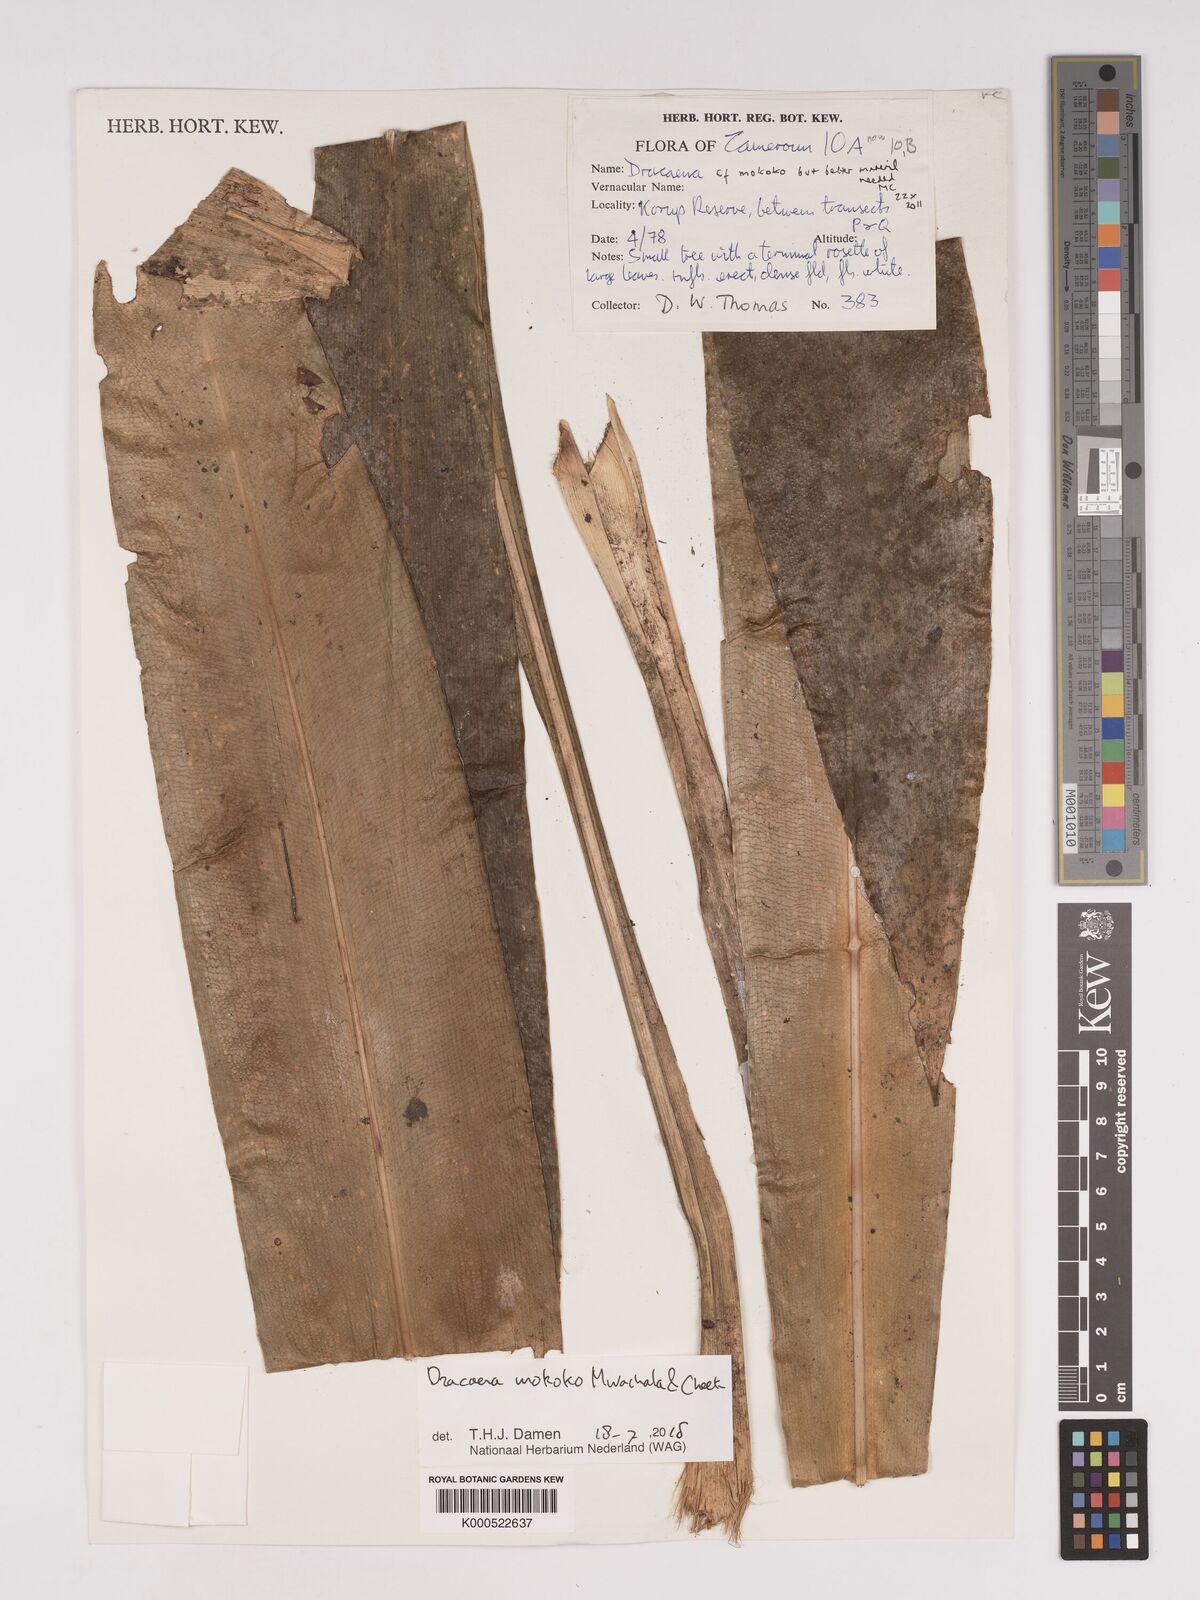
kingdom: Plantae
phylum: Tracheophyta
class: Liliopsida
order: Asparagales
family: Asparagaceae
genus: Dracaena
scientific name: Dracaena mokoko
